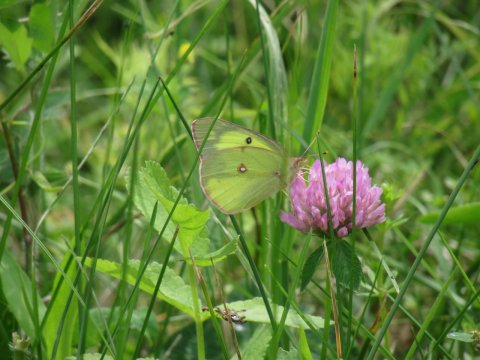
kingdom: Animalia
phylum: Arthropoda
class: Insecta
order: Lepidoptera
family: Pieridae
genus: Colias
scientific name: Colias philodice
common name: Clouded Sulphur
